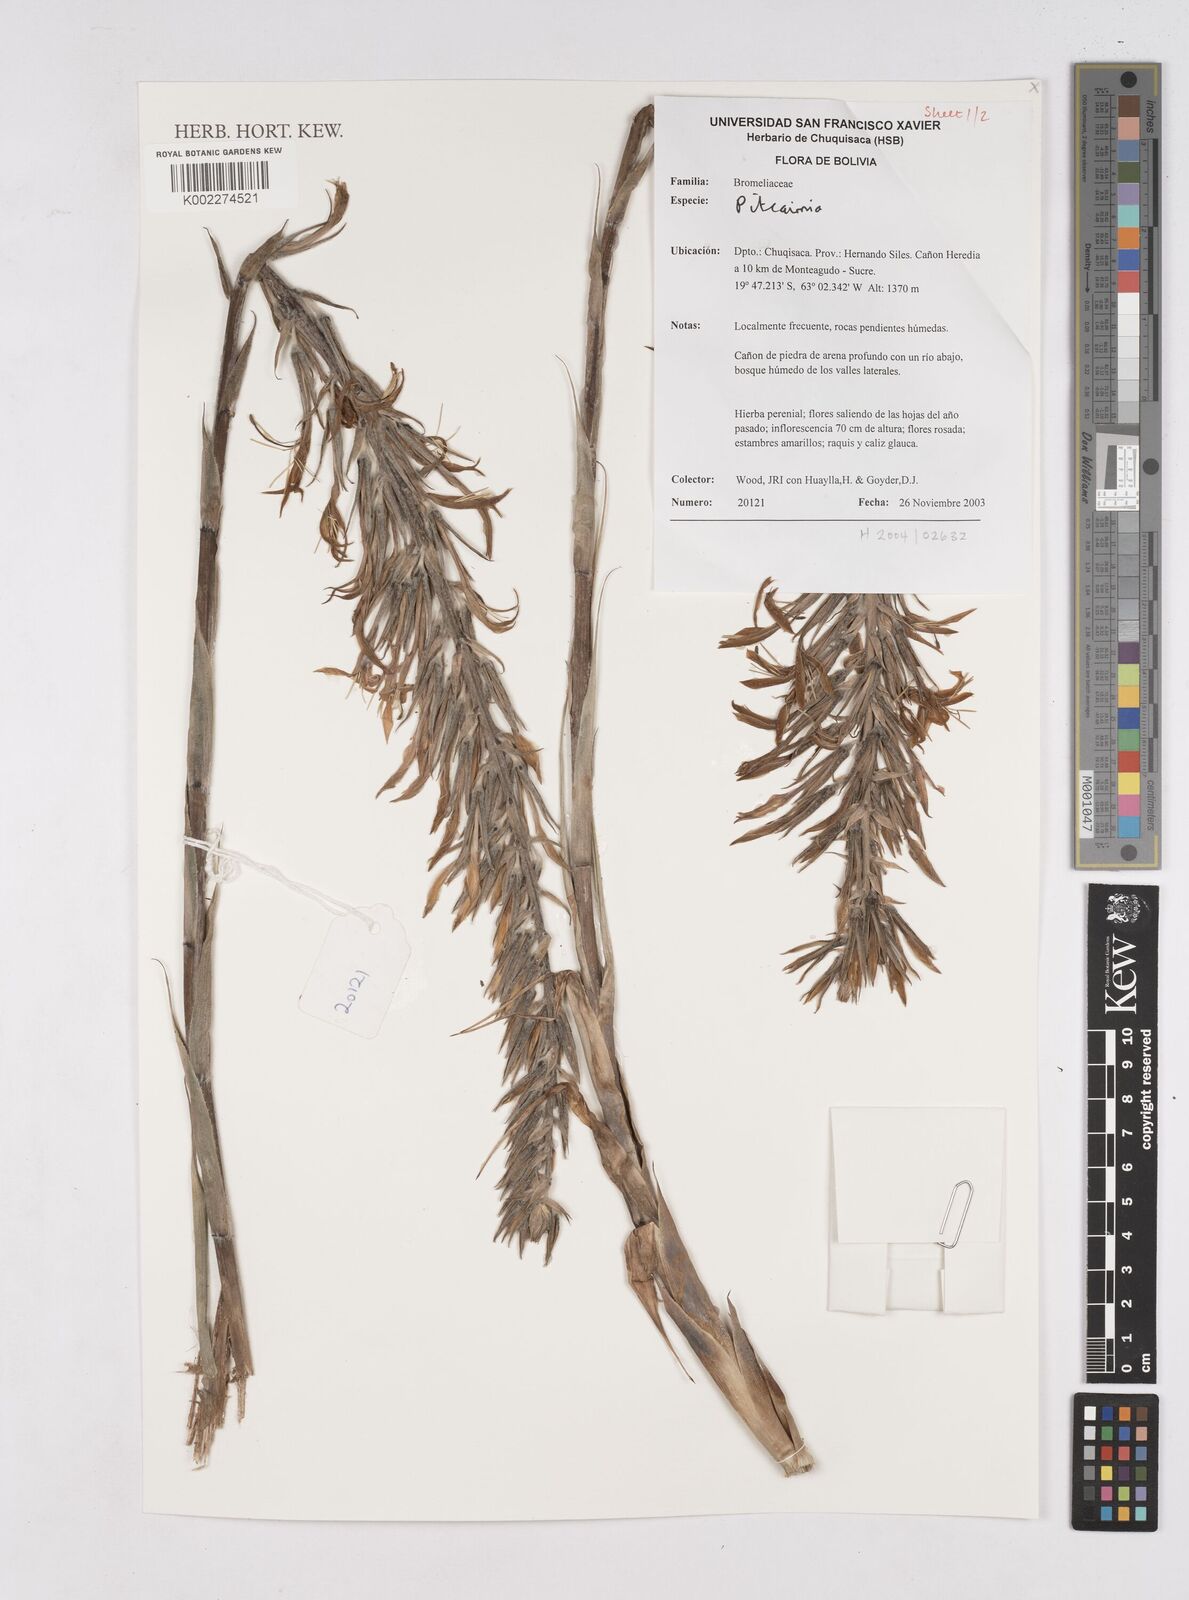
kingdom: Plantae
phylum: Tracheophyta
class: Liliopsida
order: Poales
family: Bromeliaceae
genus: Pitcairnia
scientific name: Pitcairnia
